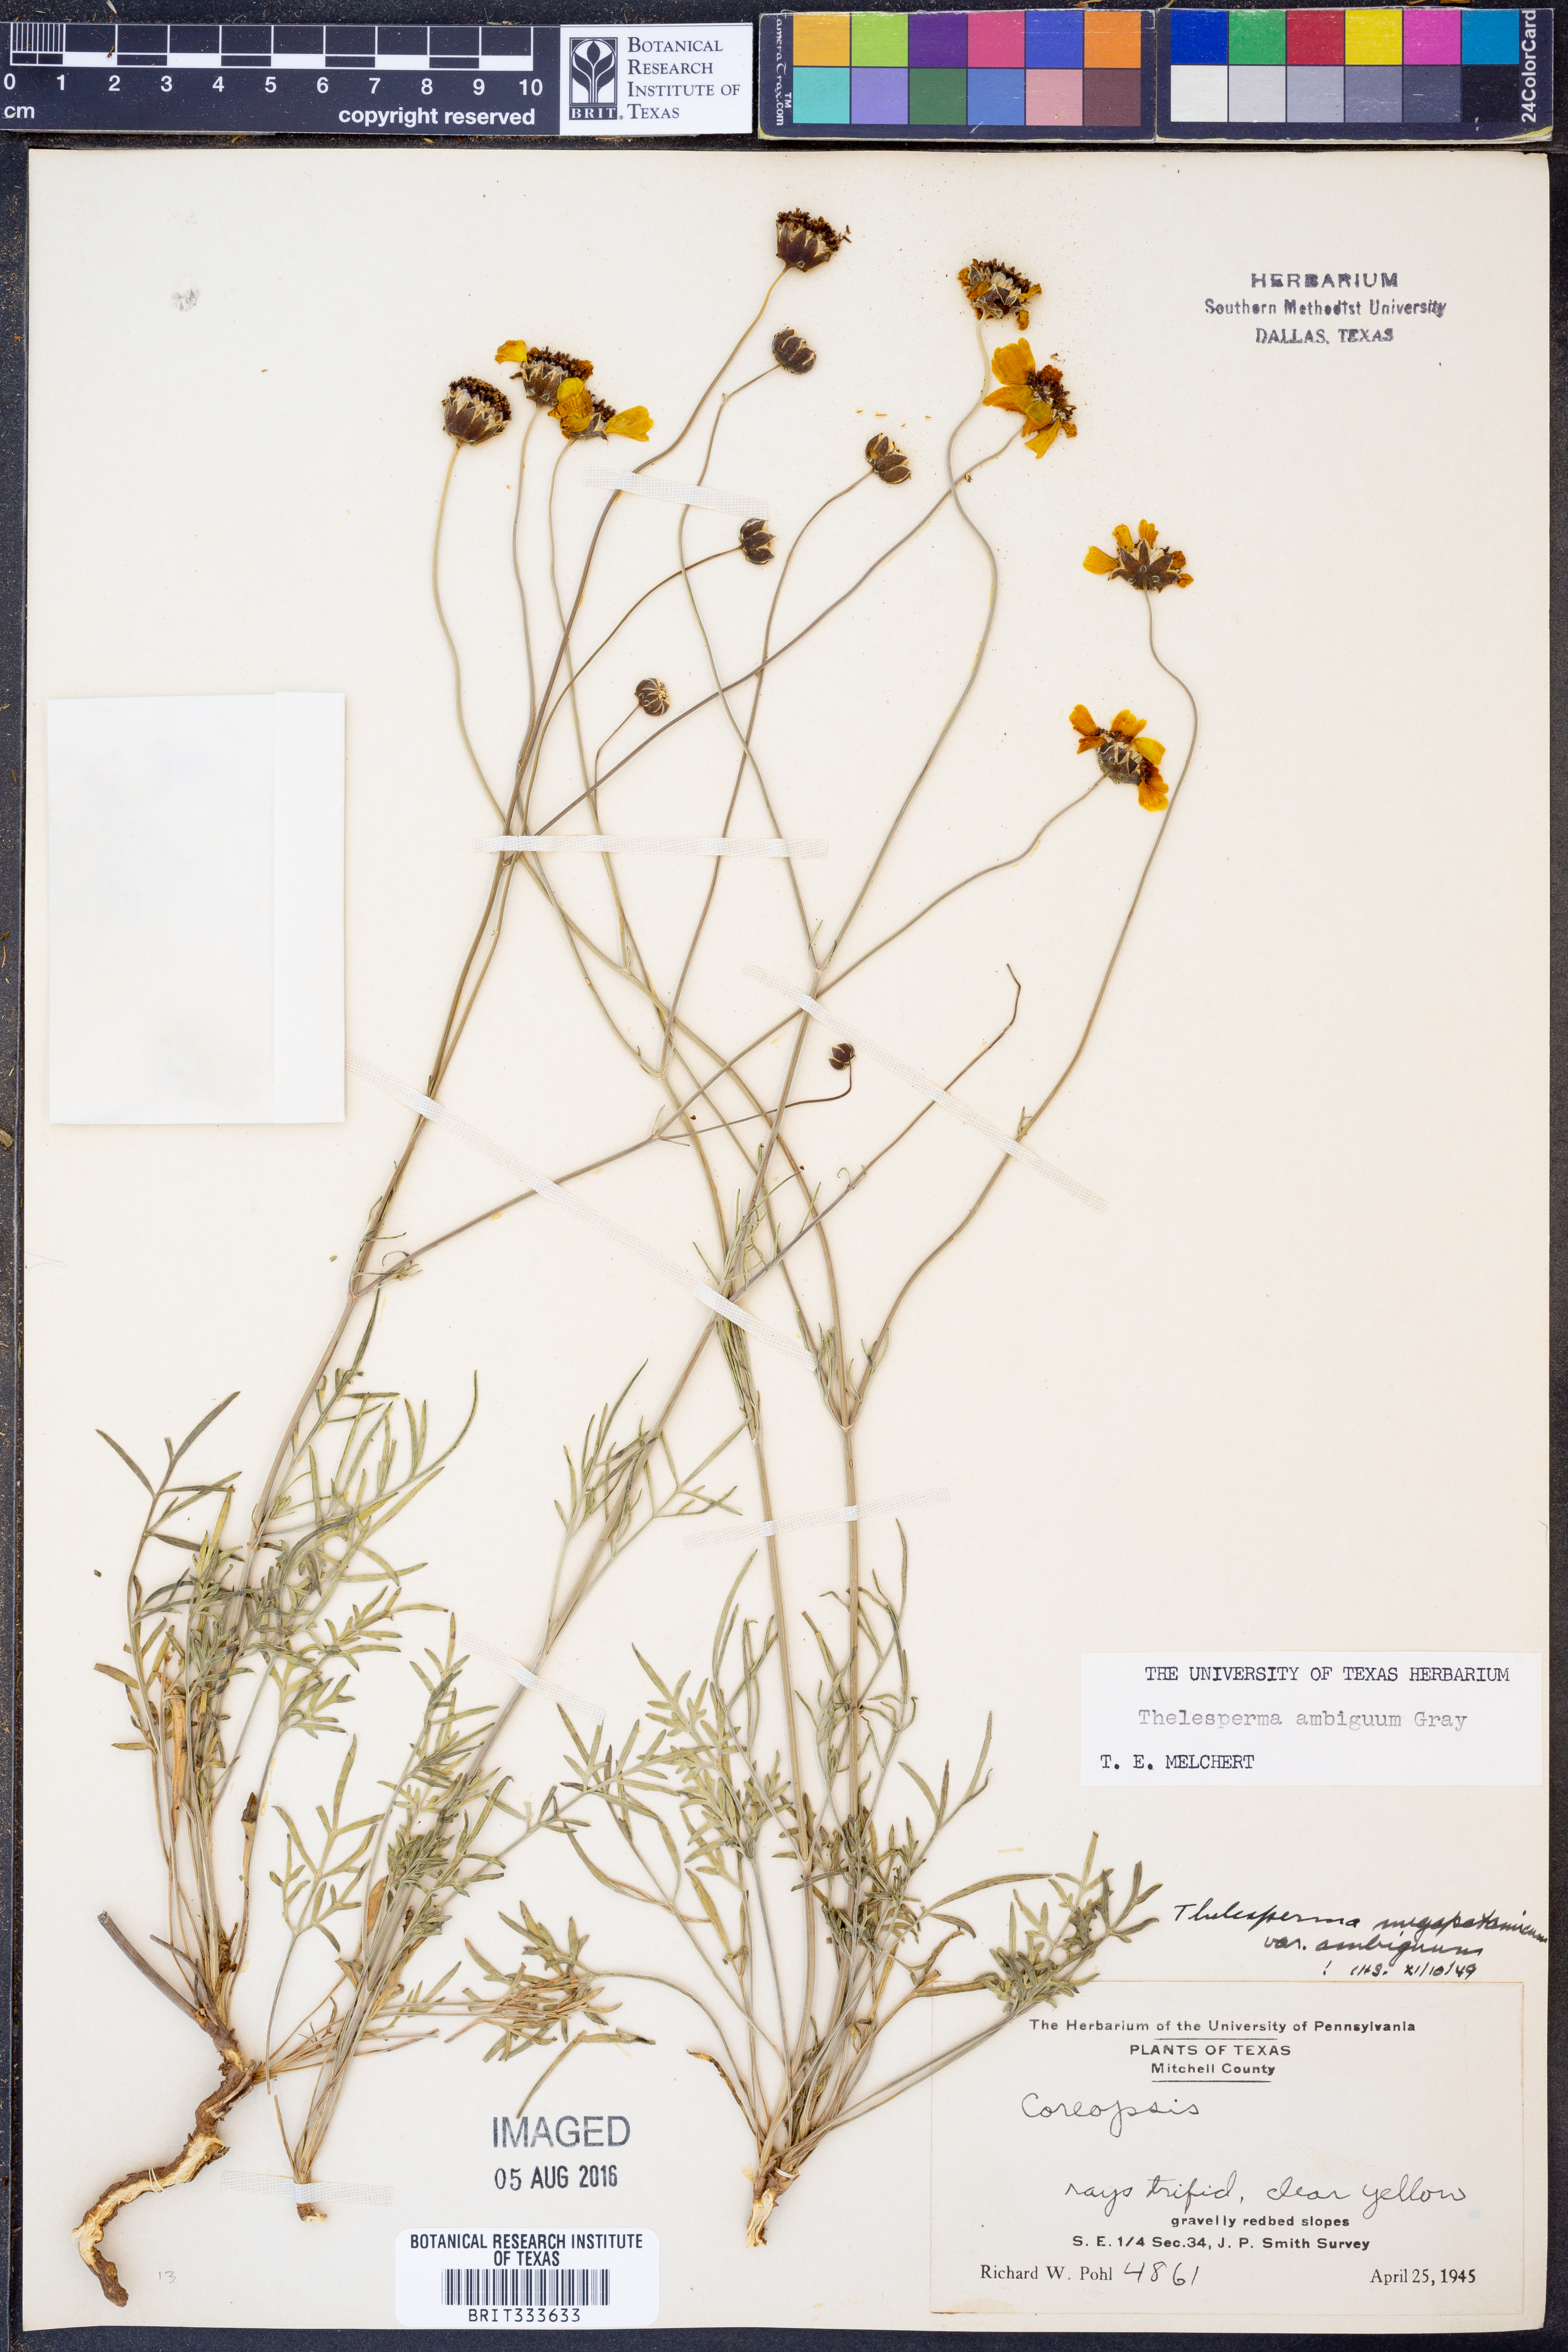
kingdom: Plantae
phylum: Tracheophyta
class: Magnoliopsida
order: Asterales
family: Asteraceae
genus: Thelesperma
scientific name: Thelesperma ambiguum
